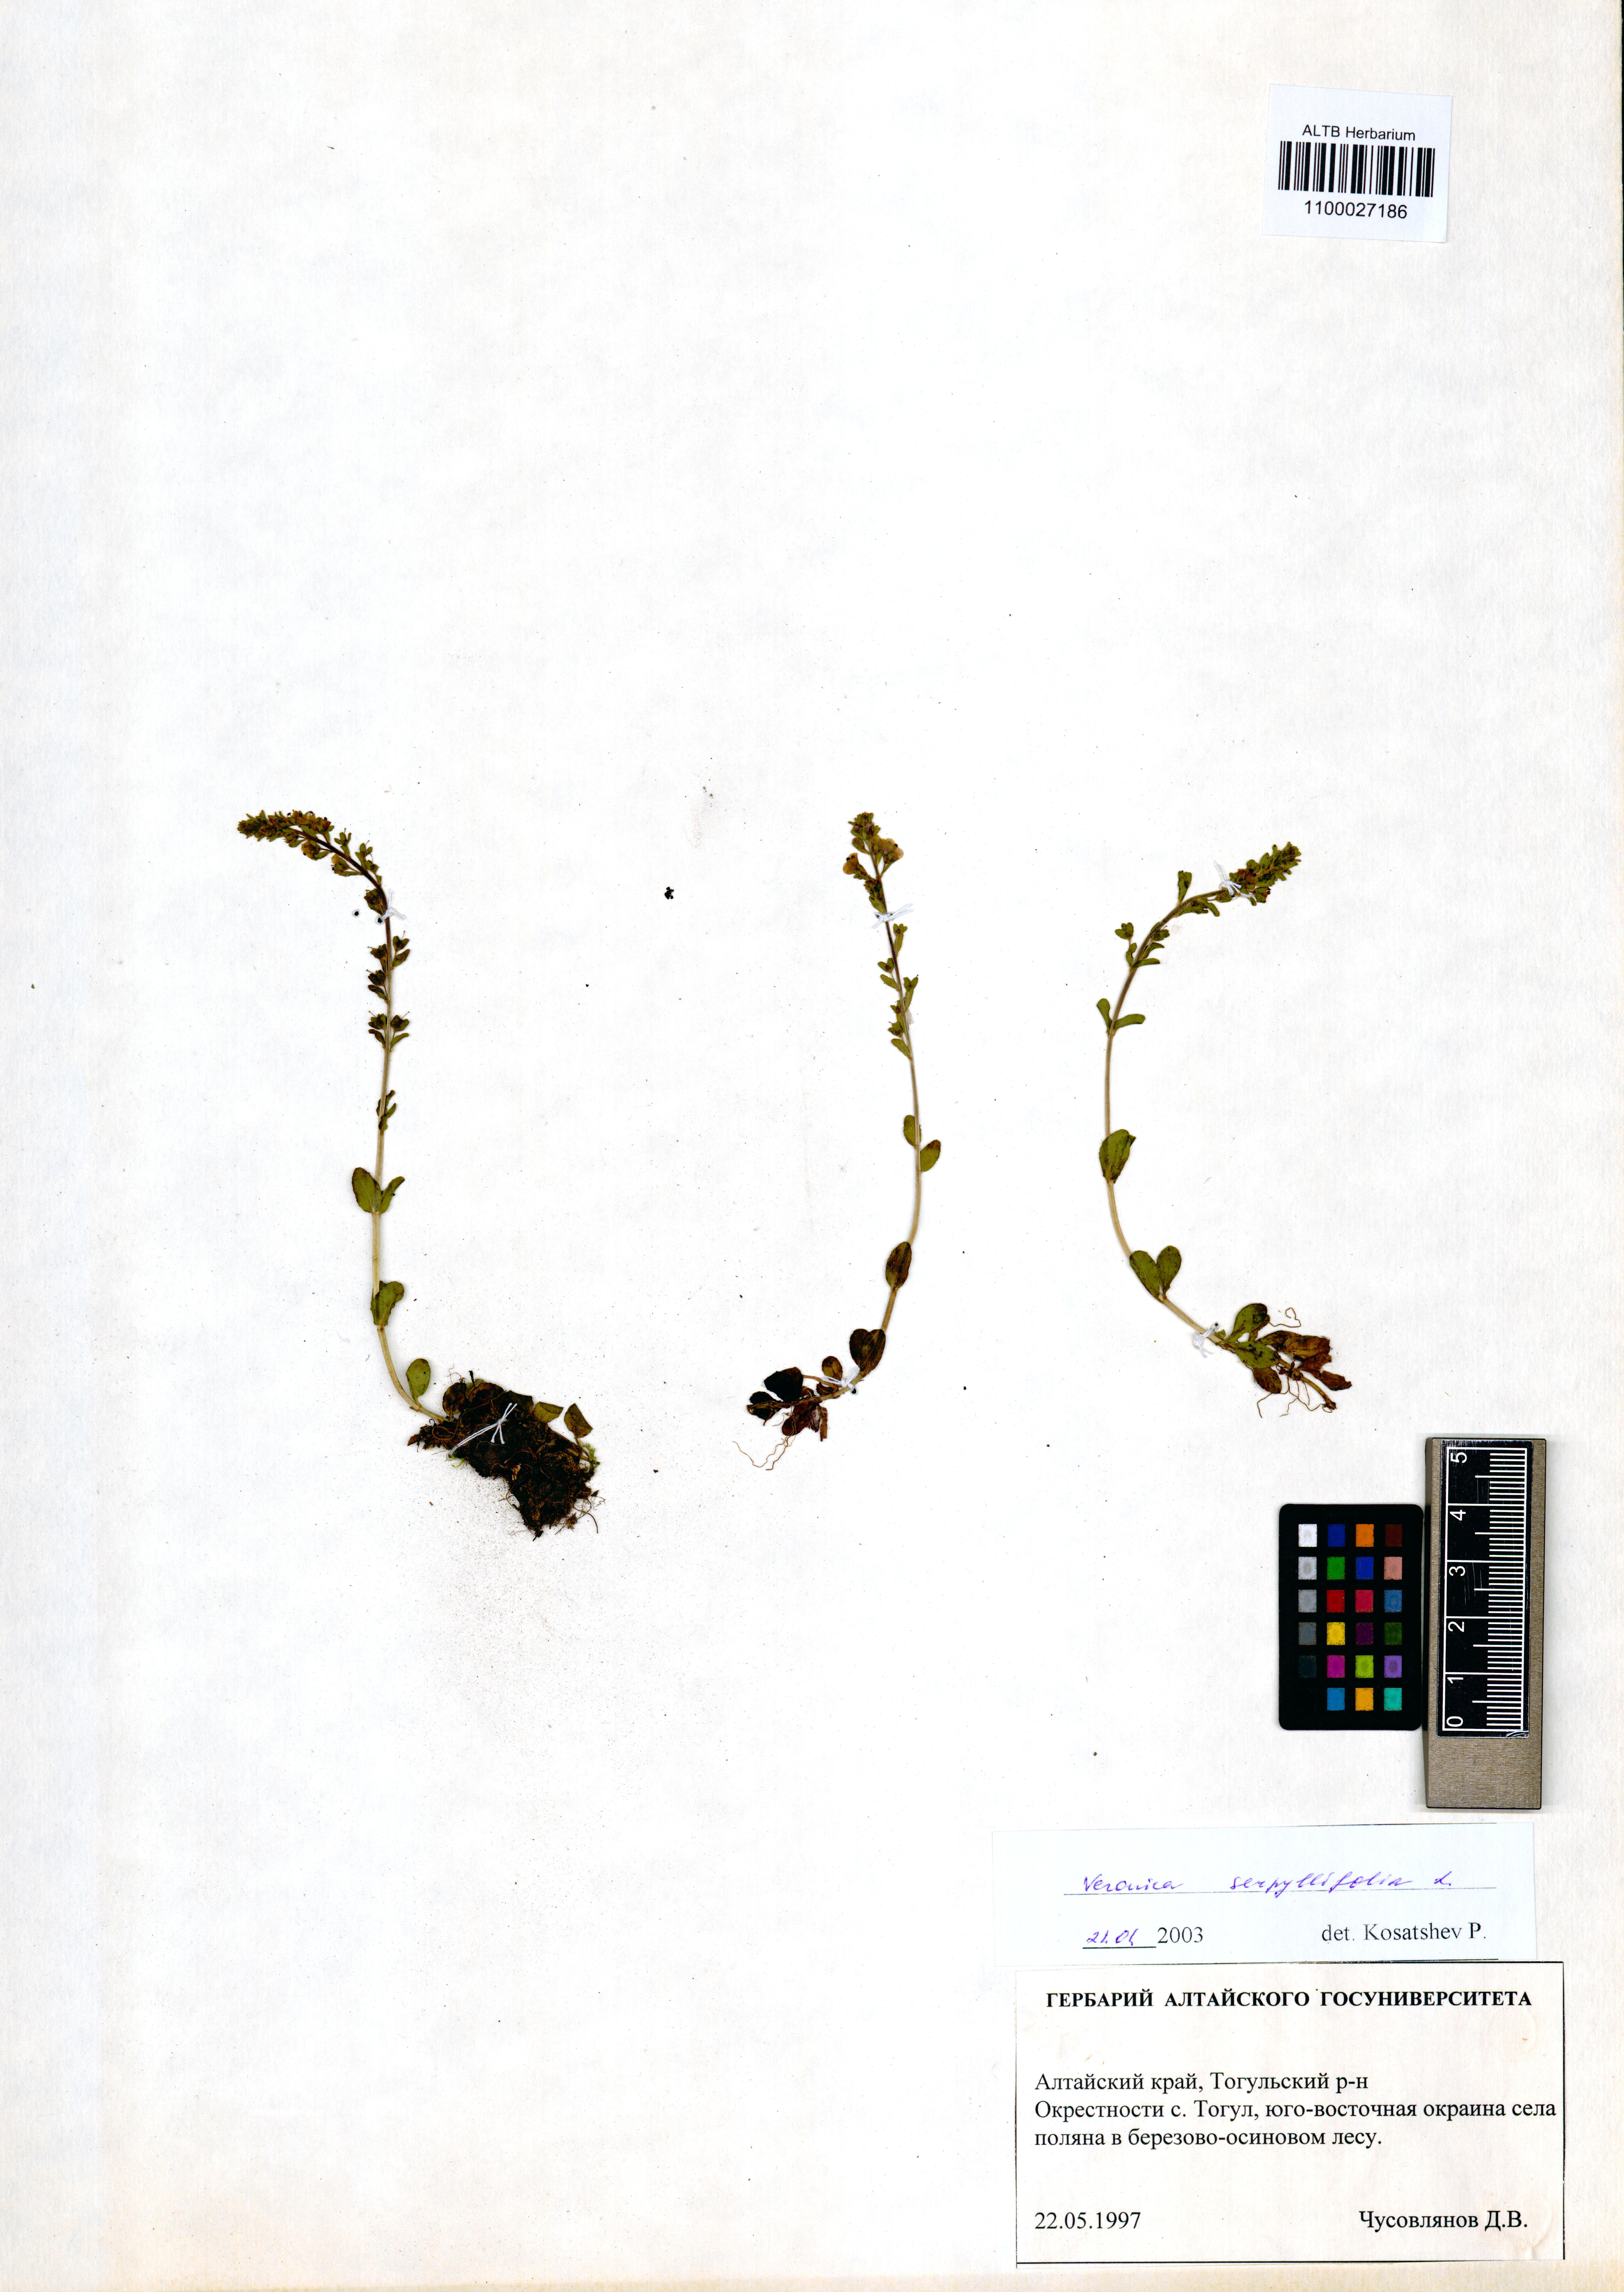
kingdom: Plantae
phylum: Tracheophyta
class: Magnoliopsida
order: Lamiales
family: Plantaginaceae
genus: Veronica
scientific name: Veronica serpyllifolia
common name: Thyme-leaved speedwell
